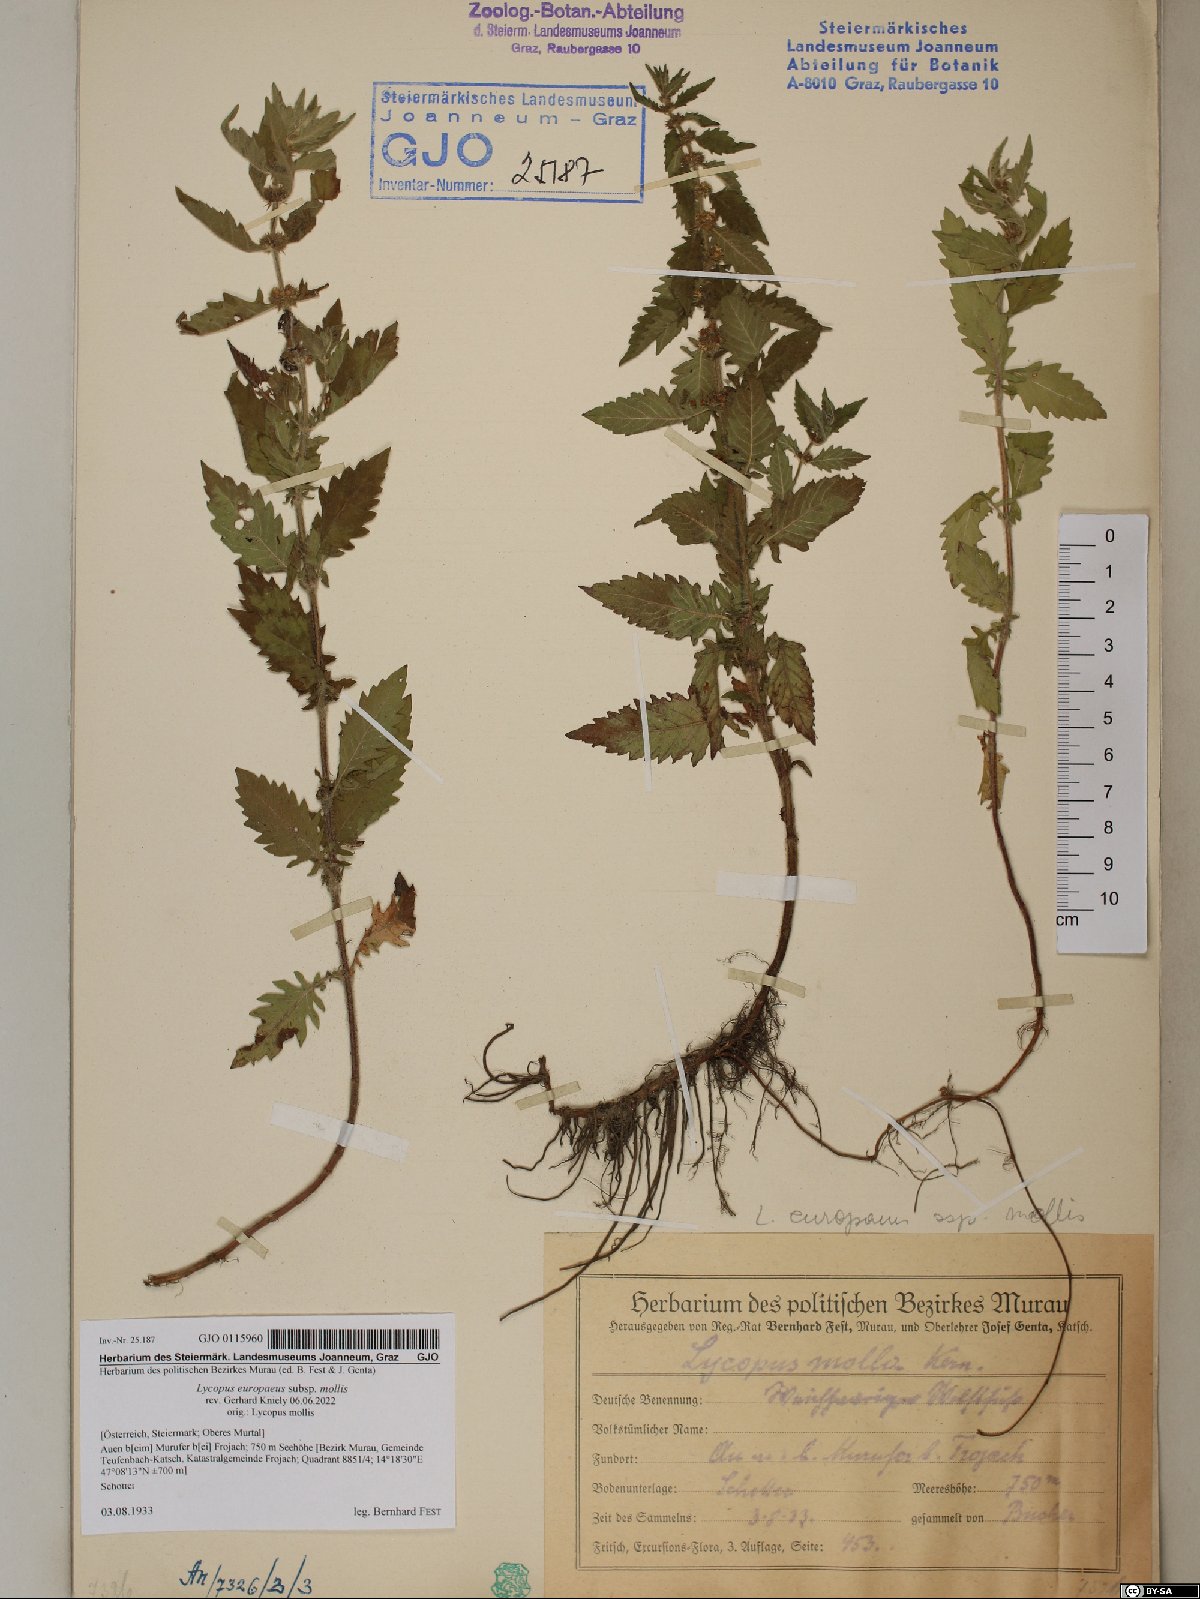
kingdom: Plantae
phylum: Tracheophyta
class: Magnoliopsida
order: Lamiales
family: Lamiaceae
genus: Lycopus
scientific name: Lycopus europaeus
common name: European bugleweed
